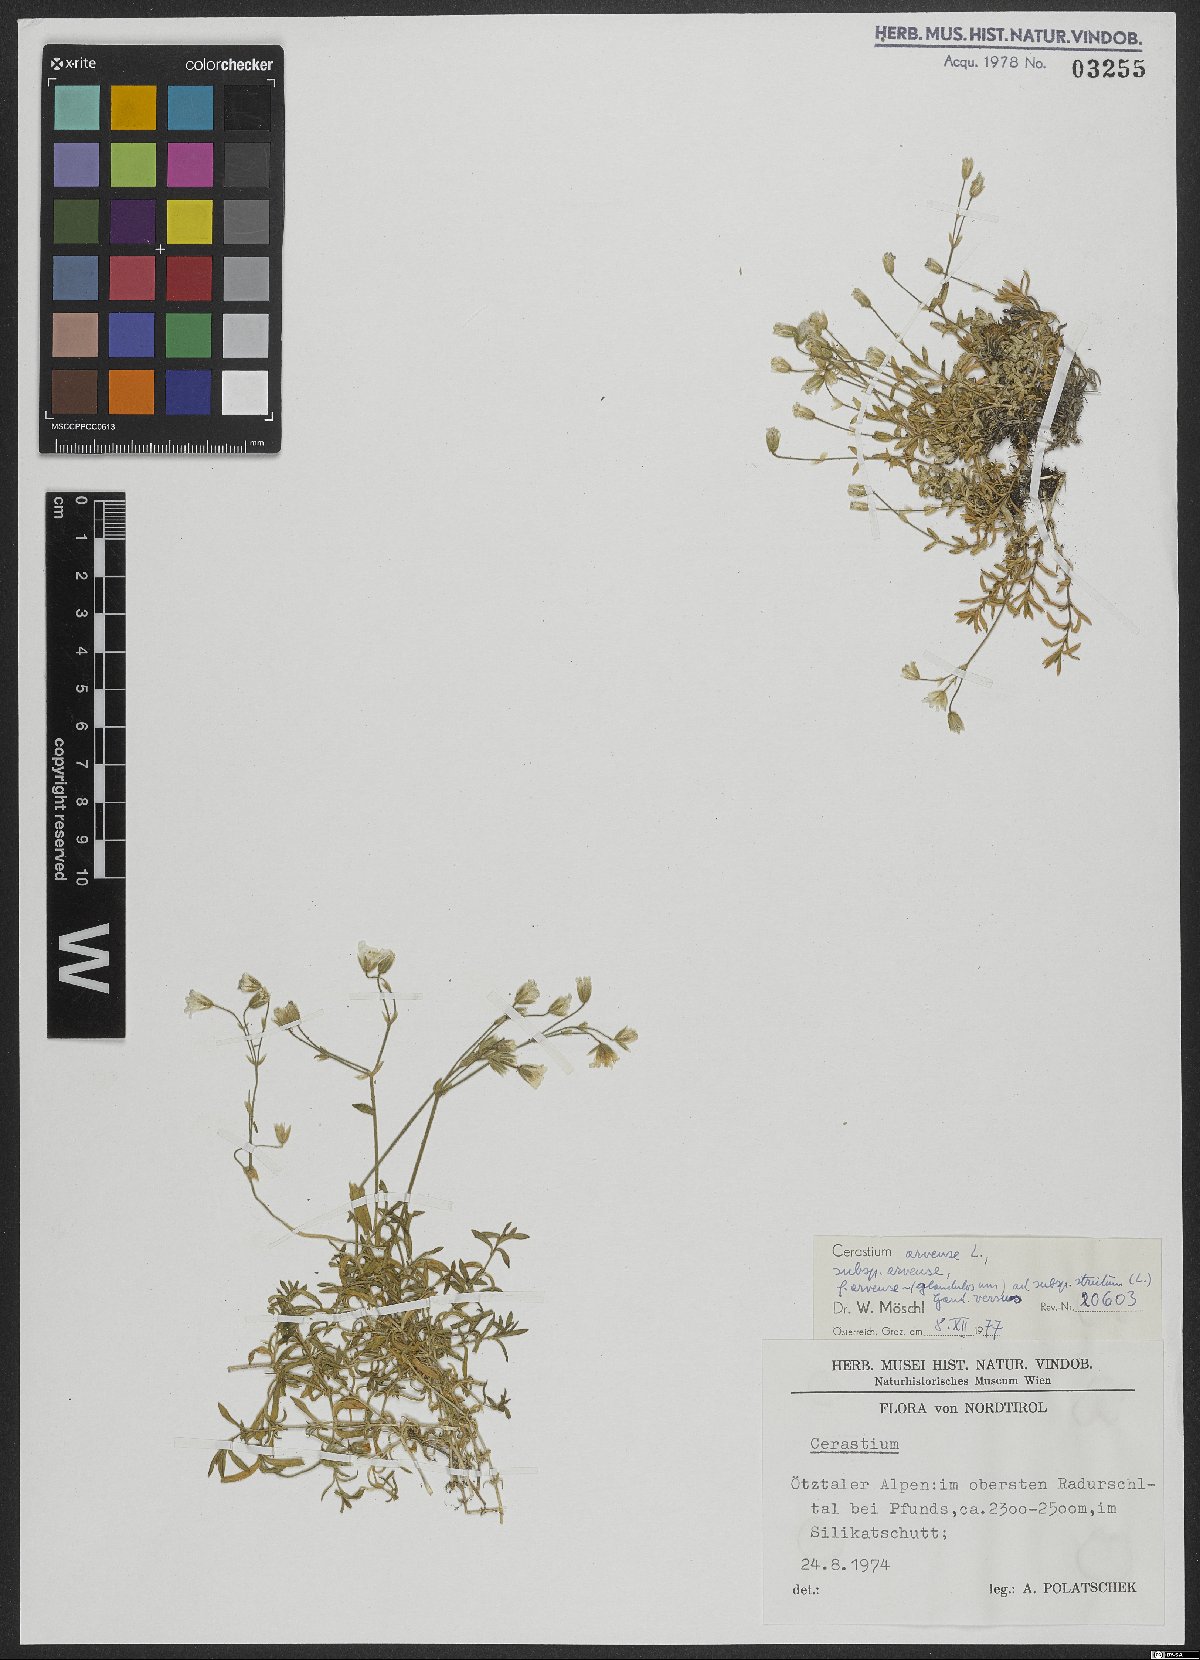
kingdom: Plantae
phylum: Tracheophyta
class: Magnoliopsida
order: Caryophyllales
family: Caryophyllaceae
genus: Cerastium
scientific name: Cerastium arvense
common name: Field mouse-ear
